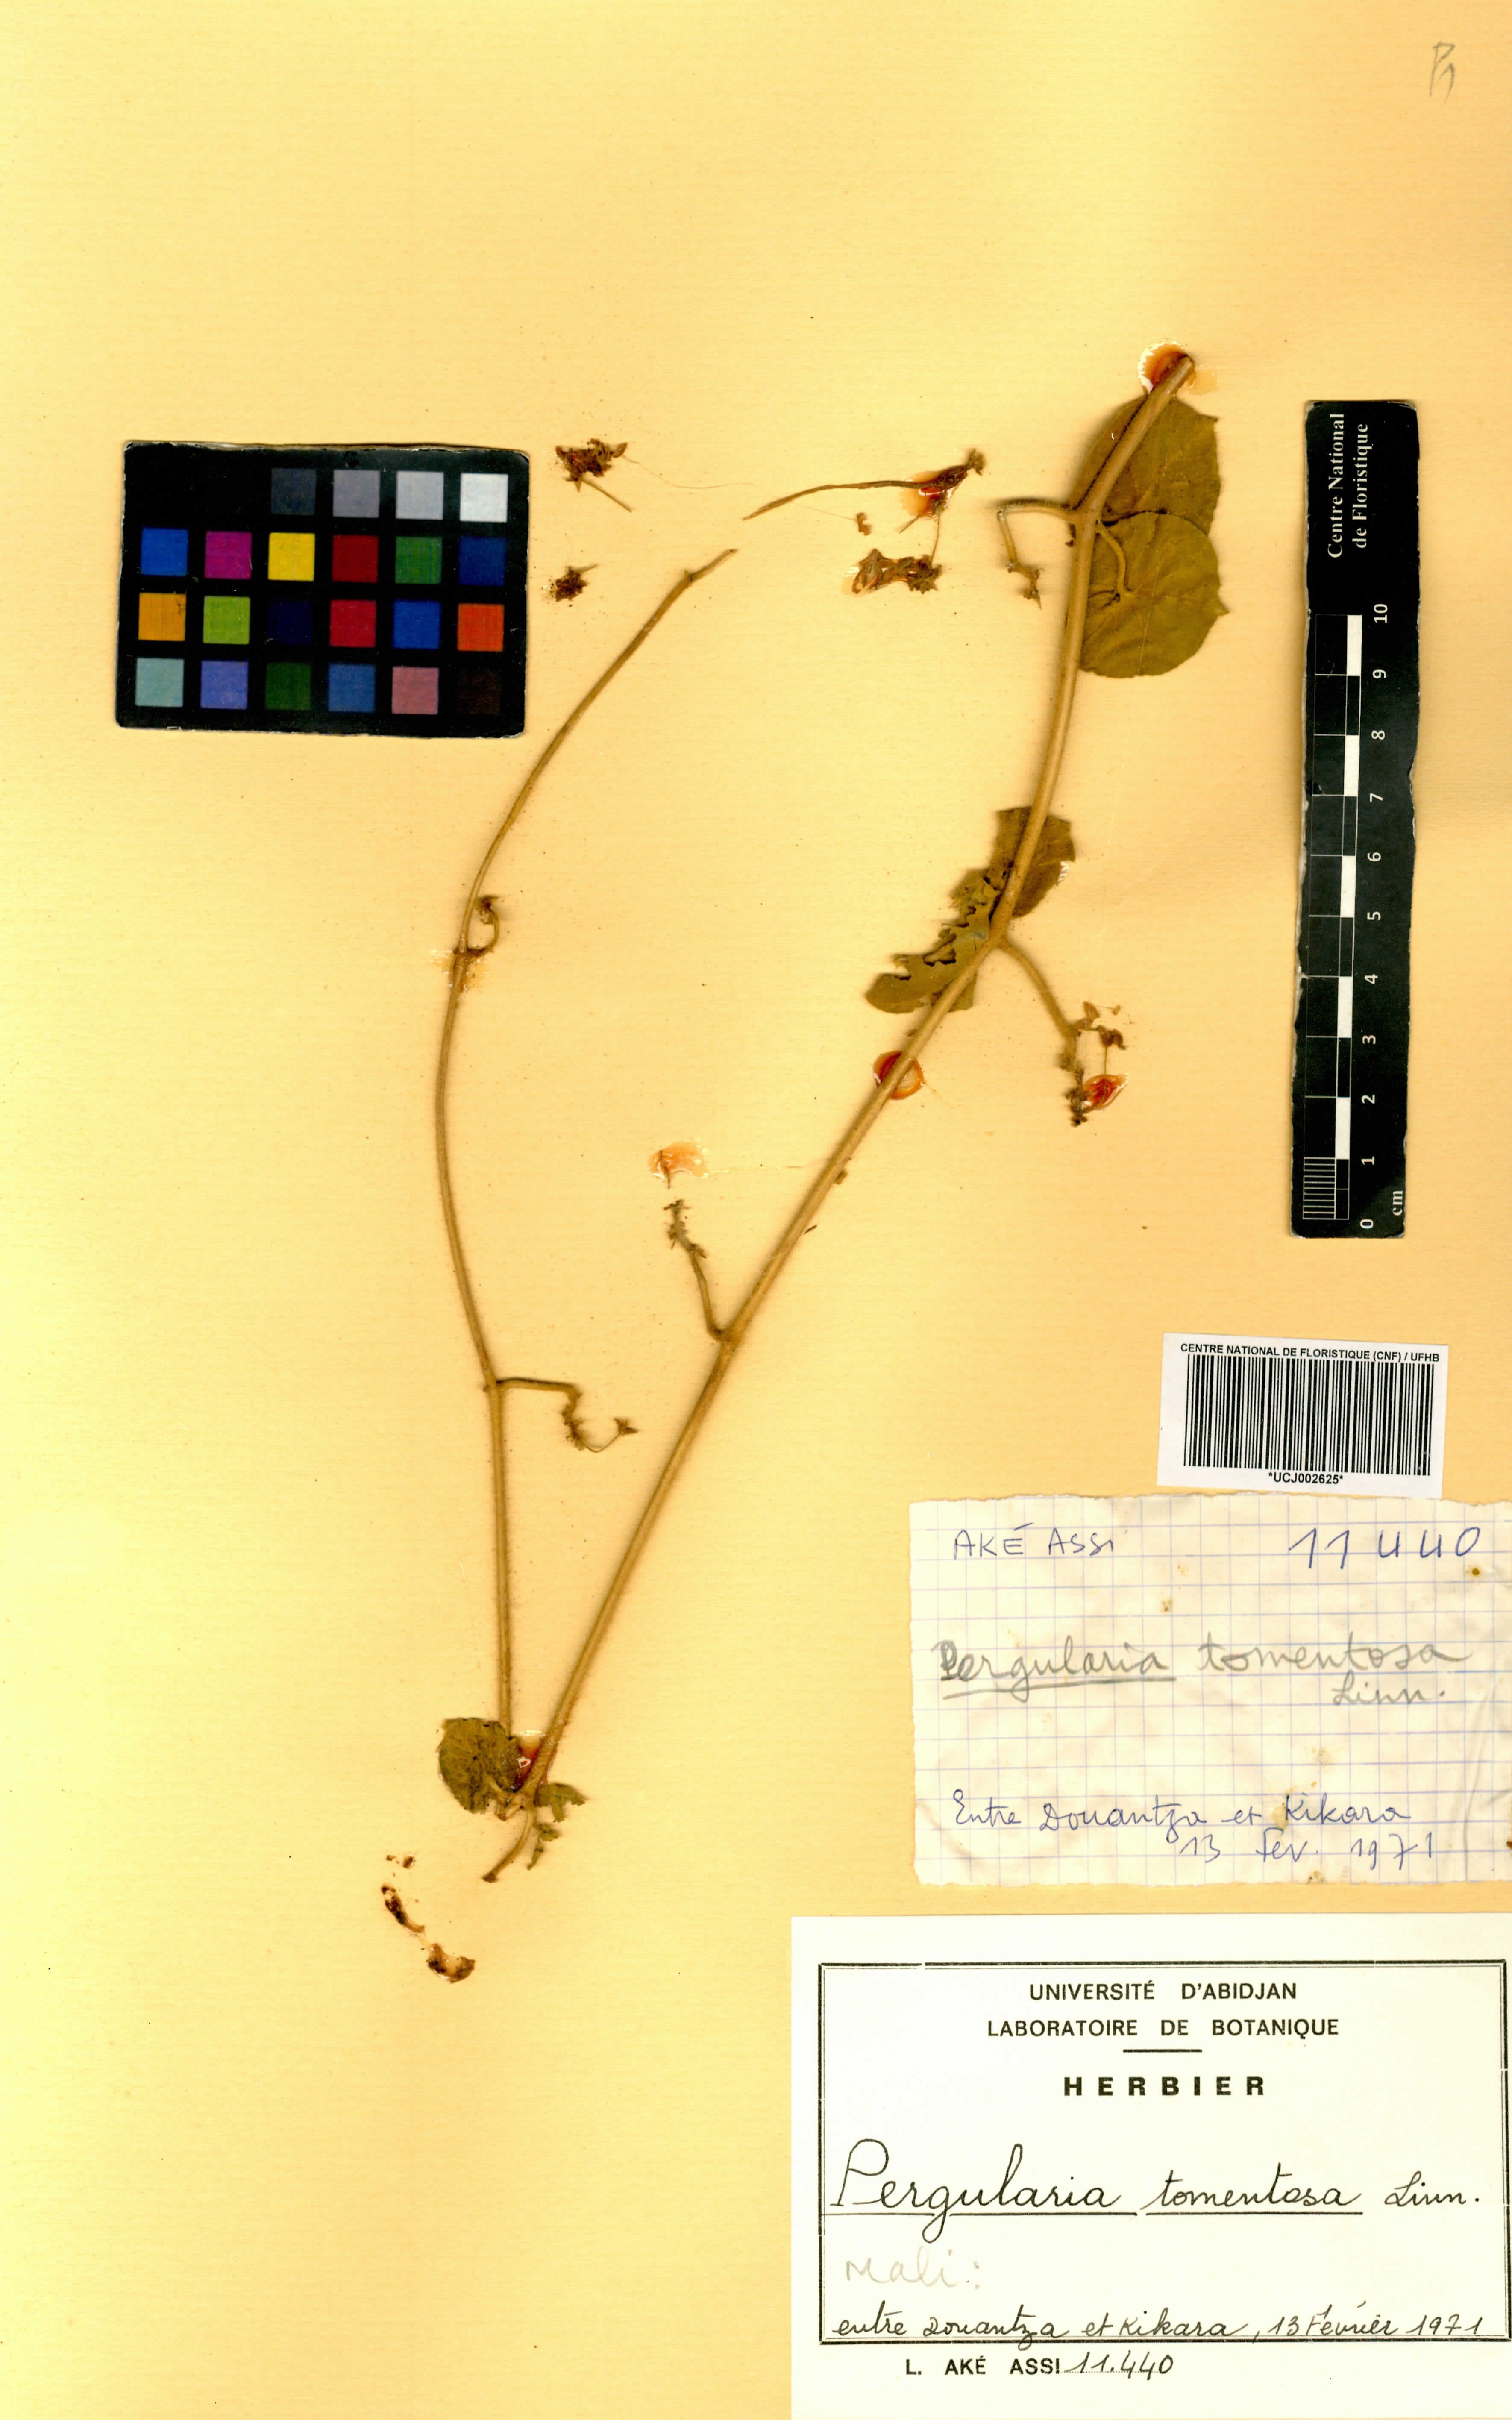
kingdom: Plantae
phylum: Tracheophyta
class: Magnoliopsida
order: Gentianales
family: Apocynaceae
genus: Pergularia
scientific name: Pergularia tomentosa
